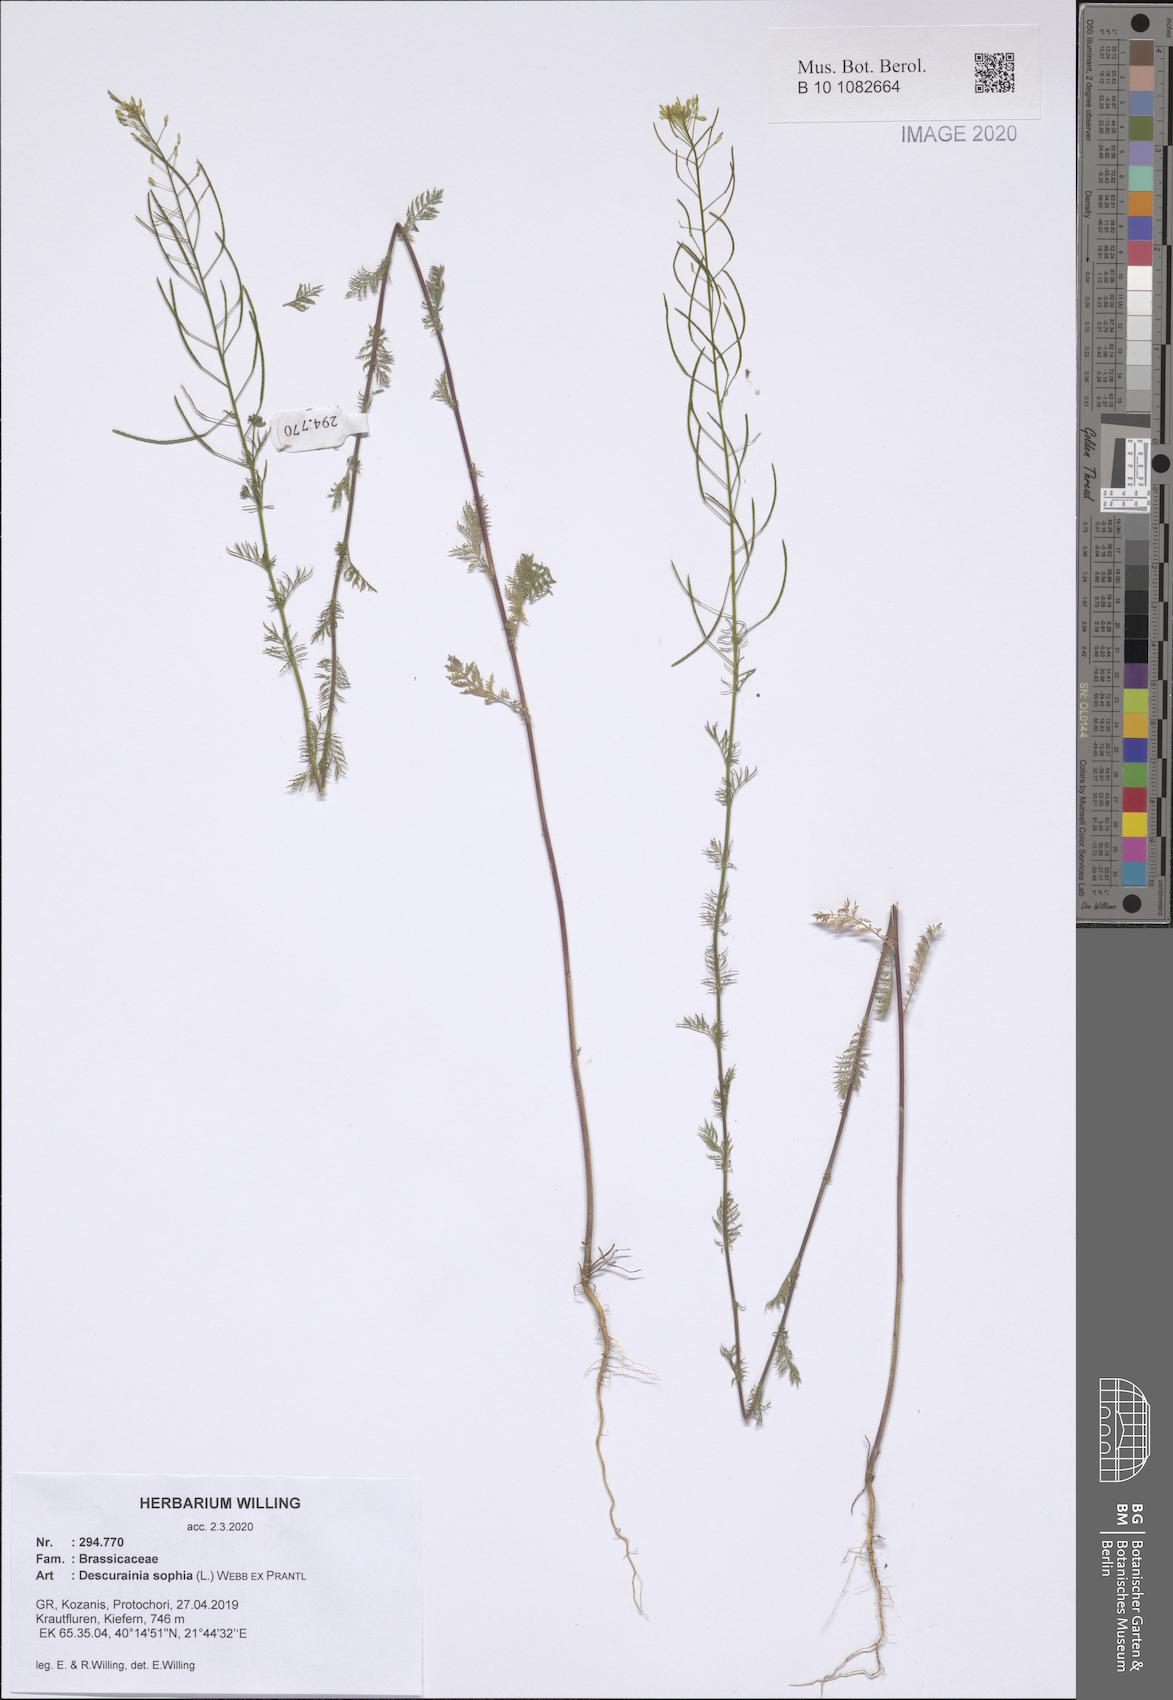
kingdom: Plantae
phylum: Tracheophyta
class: Magnoliopsida
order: Brassicales
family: Brassicaceae
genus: Descurainia
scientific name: Descurainia sophia
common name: Flixweed
